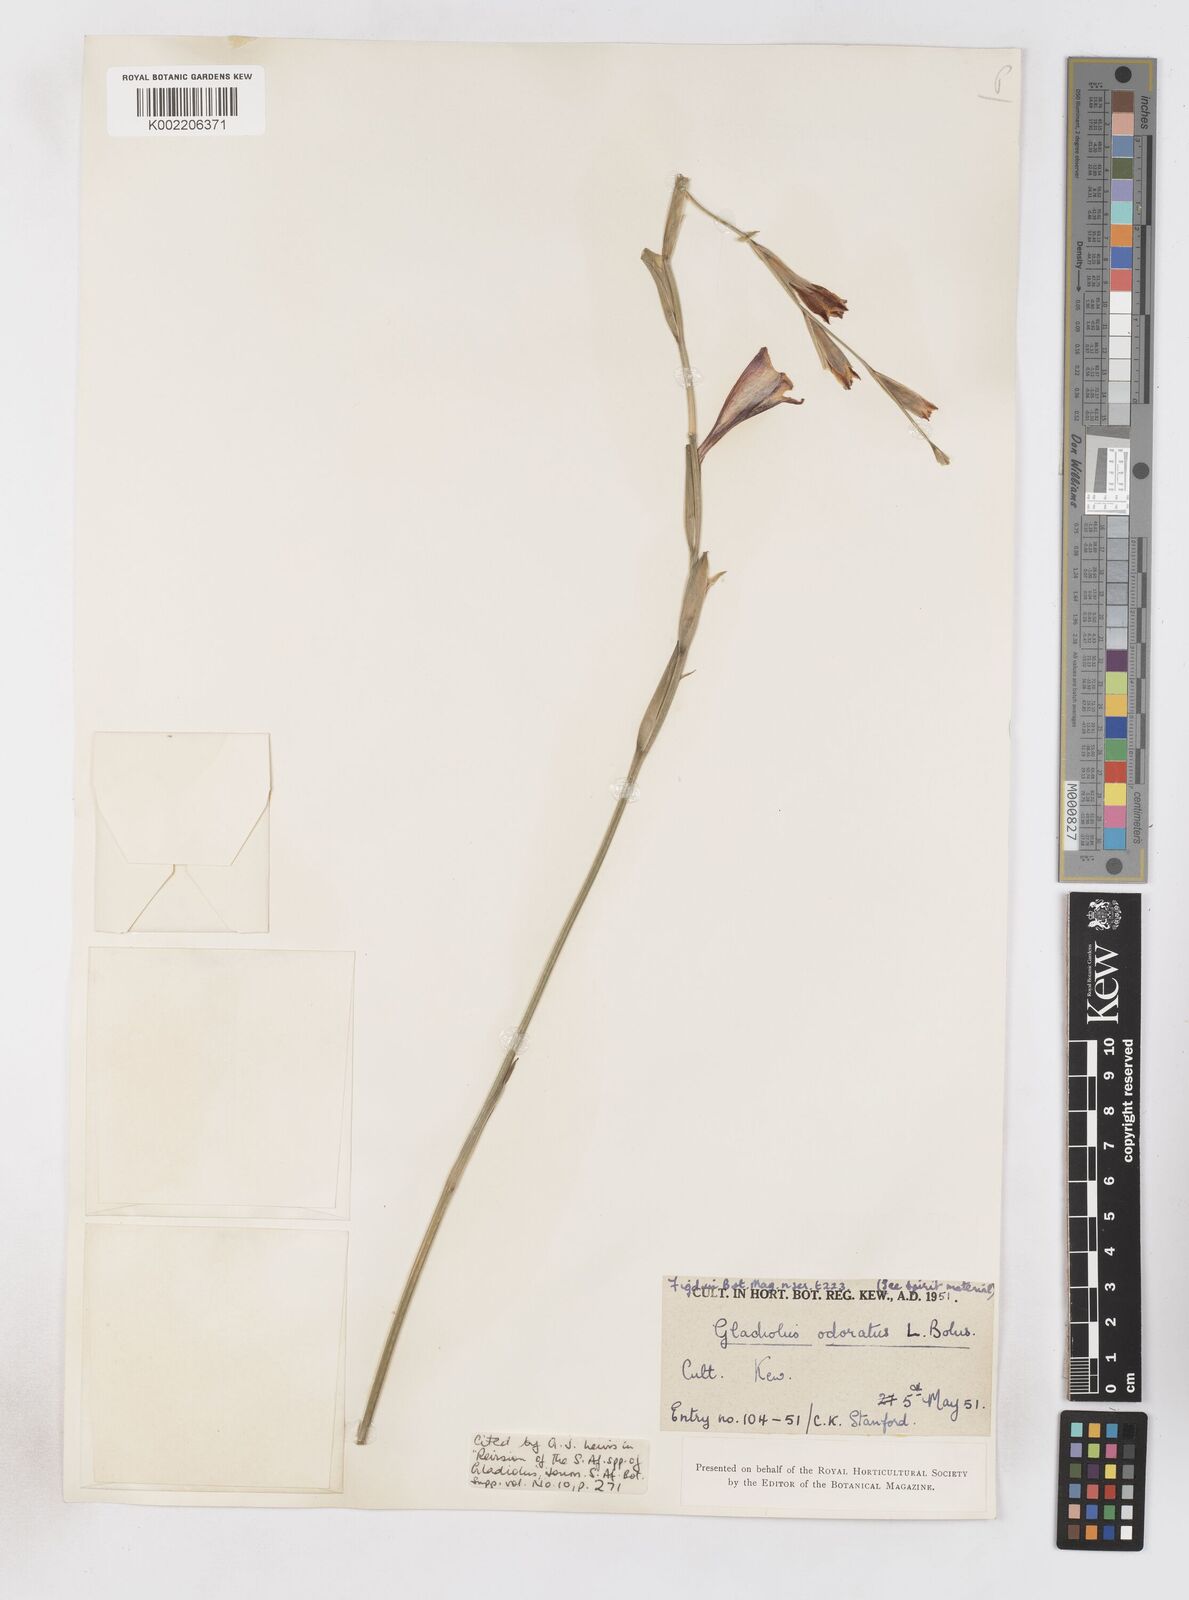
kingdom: Plantae
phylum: Tracheophyta
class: Liliopsida
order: Asparagales
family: Iridaceae
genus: Gladiolus
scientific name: Gladiolus guthriei
